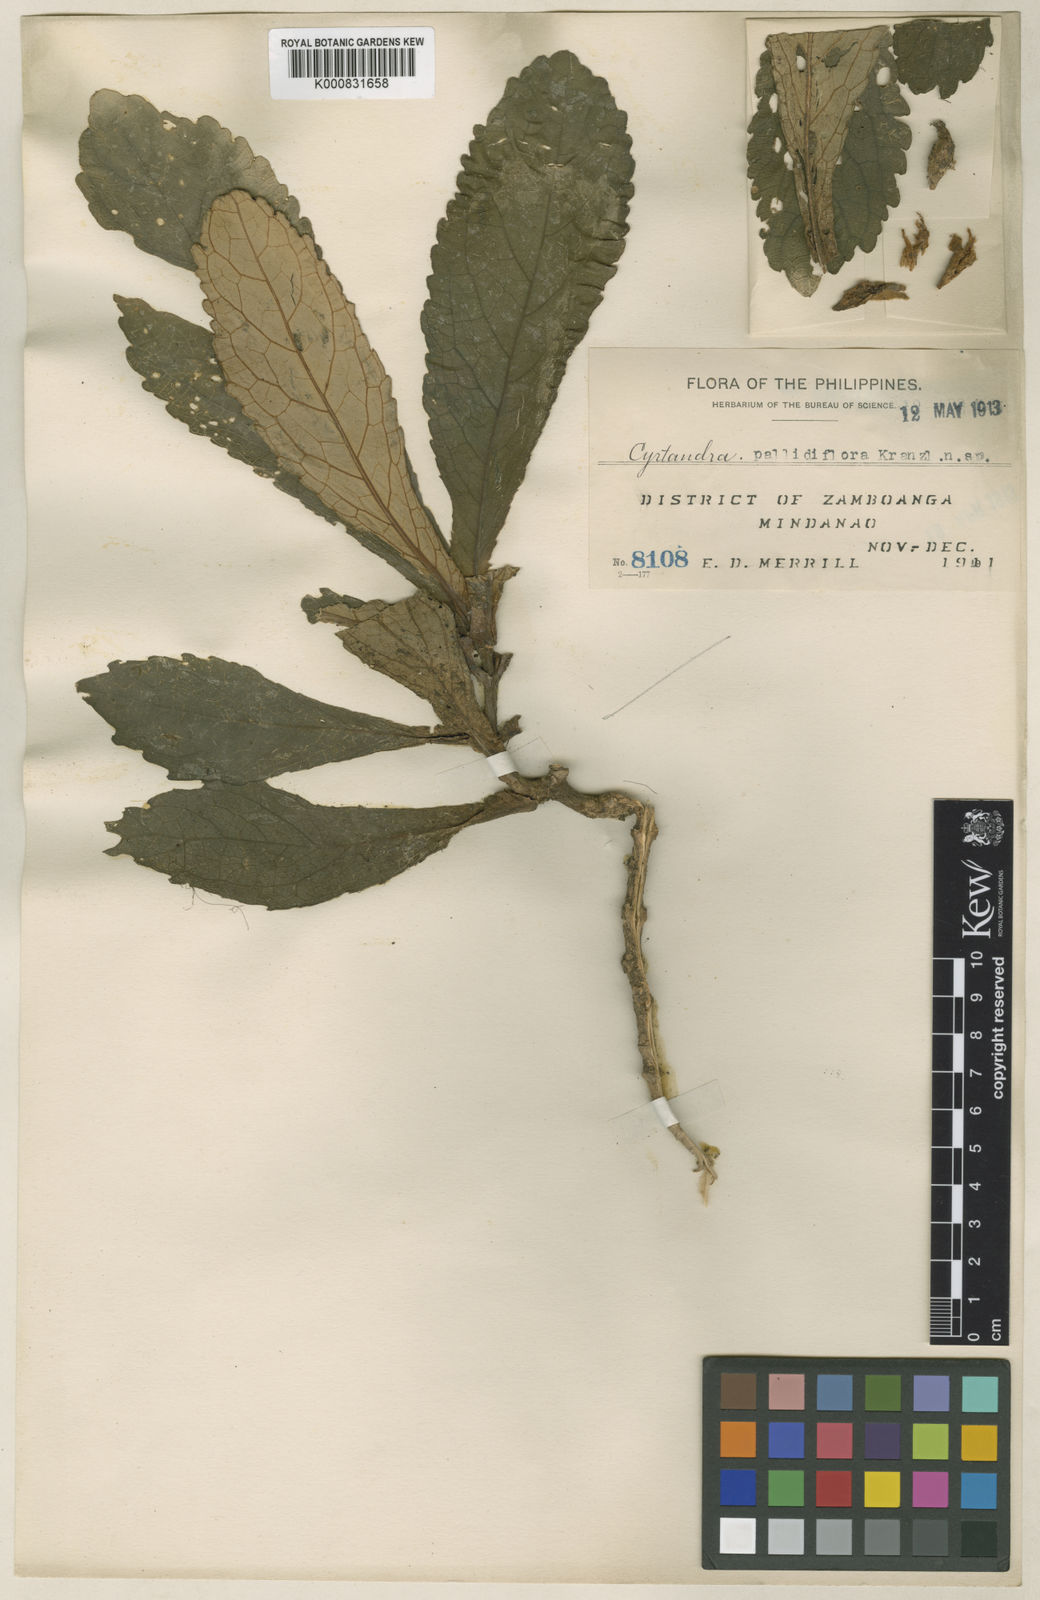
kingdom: Plantae
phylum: Tracheophyta
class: Magnoliopsida
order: Lamiales
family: Gesneriaceae
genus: Cyrtandra
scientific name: Cyrtandra
